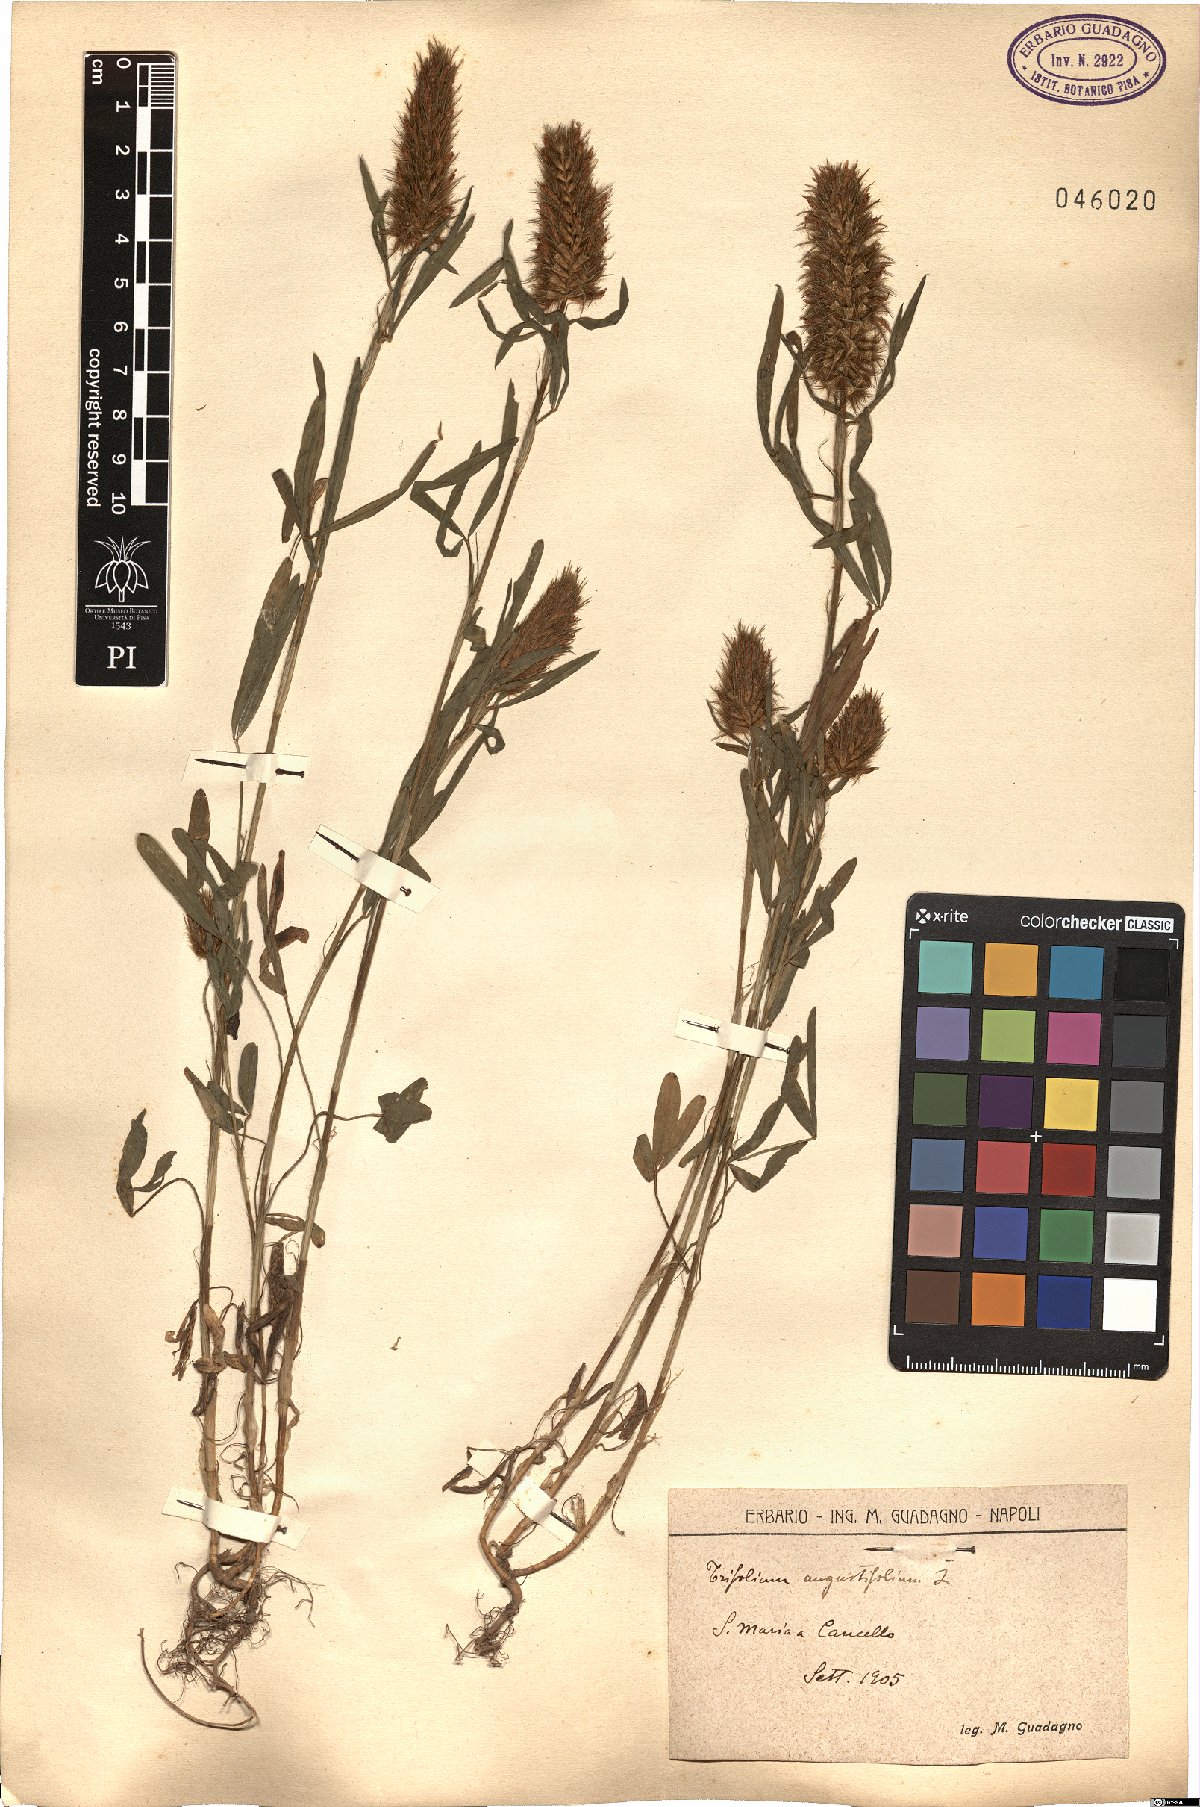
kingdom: Plantae
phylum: Tracheophyta
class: Magnoliopsida
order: Fabales
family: Fabaceae
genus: Trifolium
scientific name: Trifolium angustifolium
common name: Narrow clover
